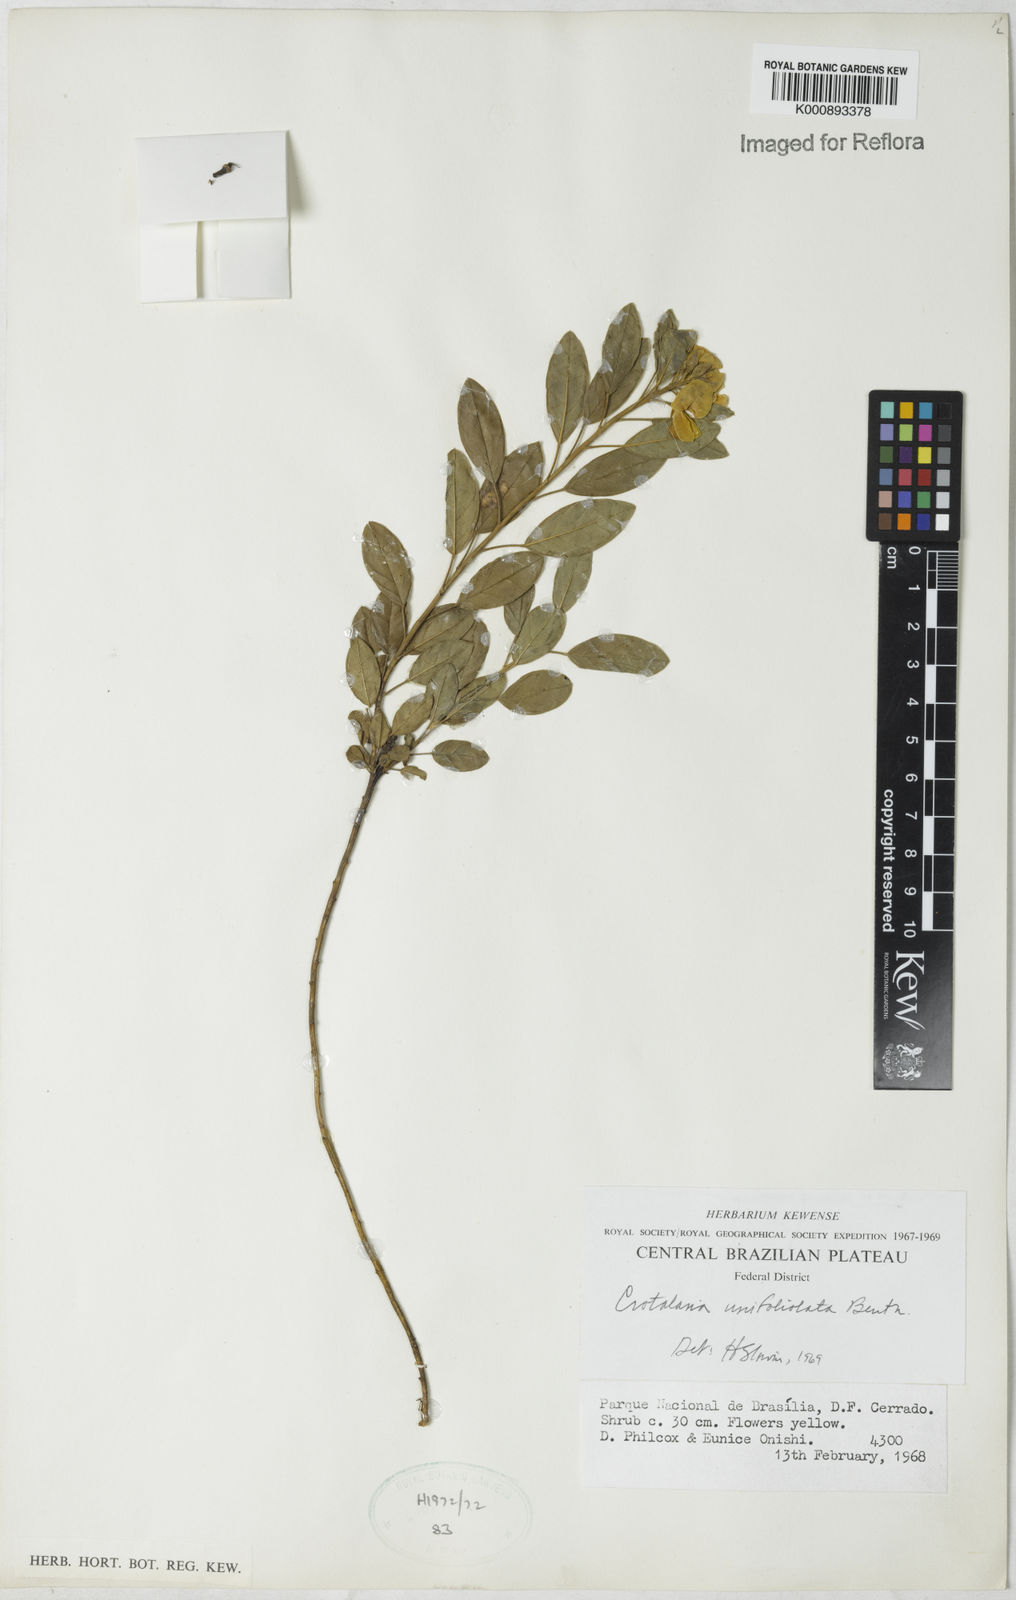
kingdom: Plantae
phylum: Tracheophyta
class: Magnoliopsida
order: Fabales
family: Fabaceae
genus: Crotalaria
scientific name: Crotalaria unifoliolata
